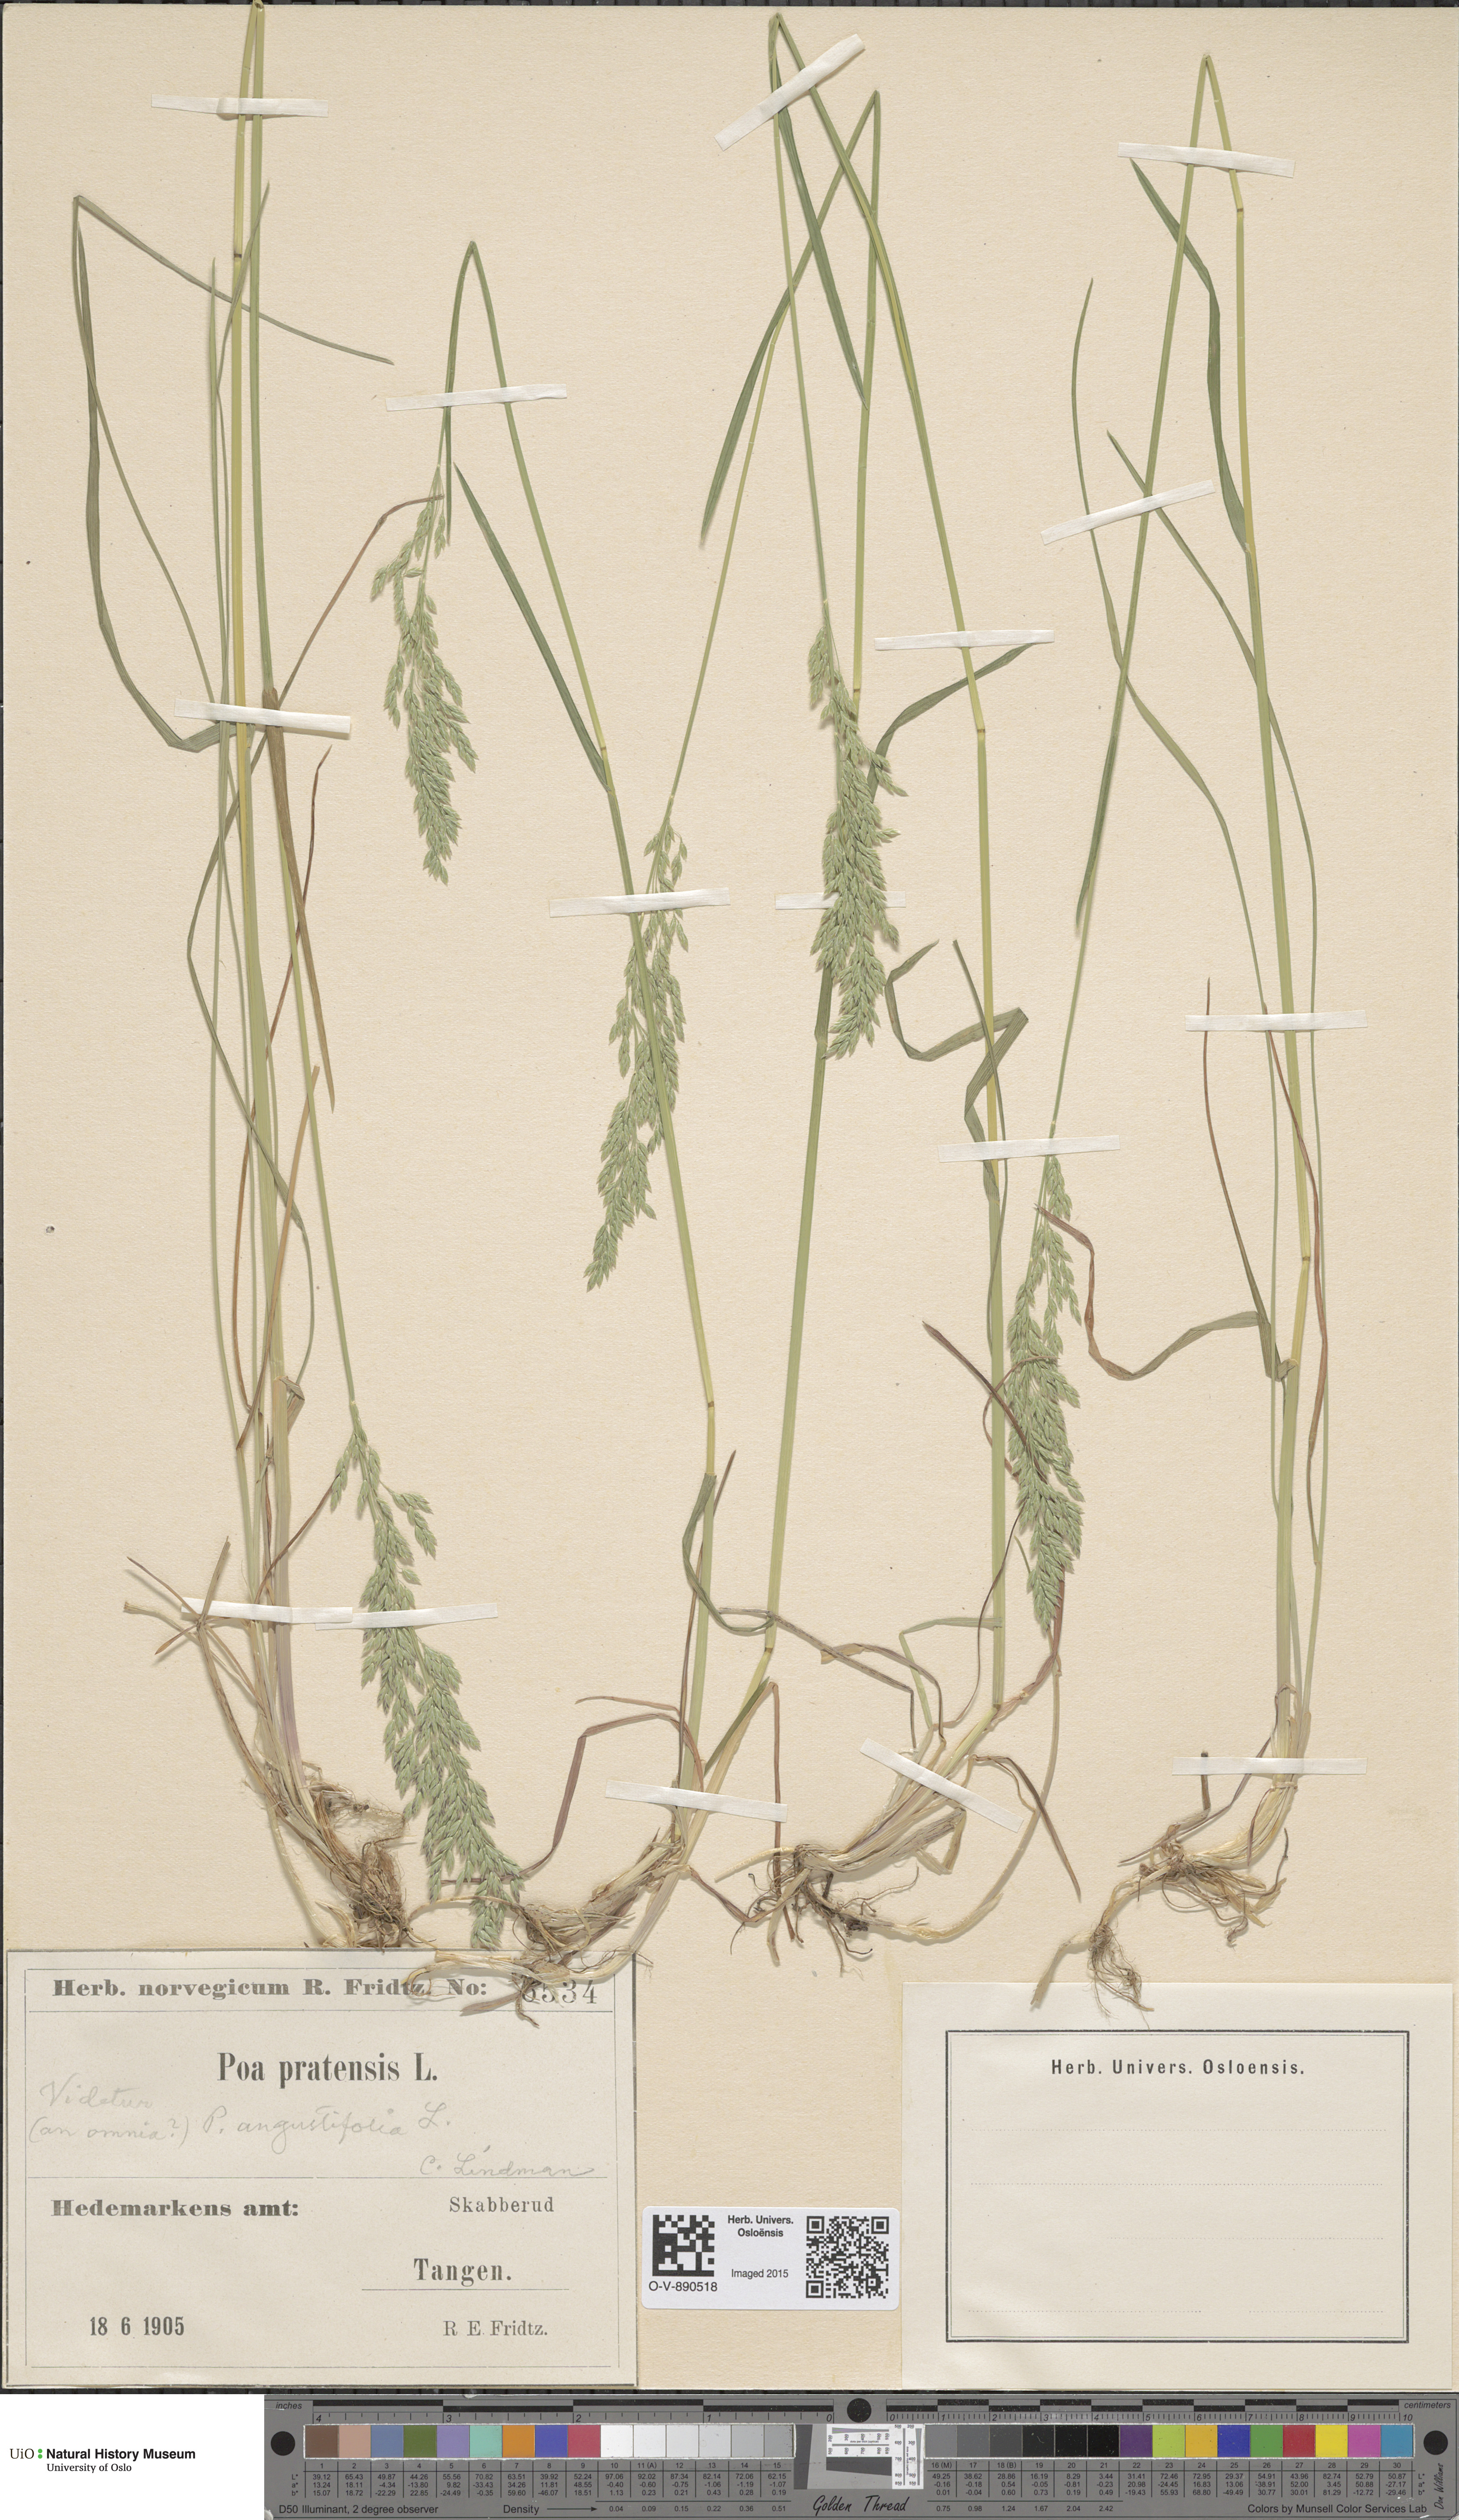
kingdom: Plantae
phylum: Tracheophyta
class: Liliopsida
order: Poales
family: Poaceae
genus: Poa
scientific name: Poa angustifolia
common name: Narrow-leaved meadow-grass
